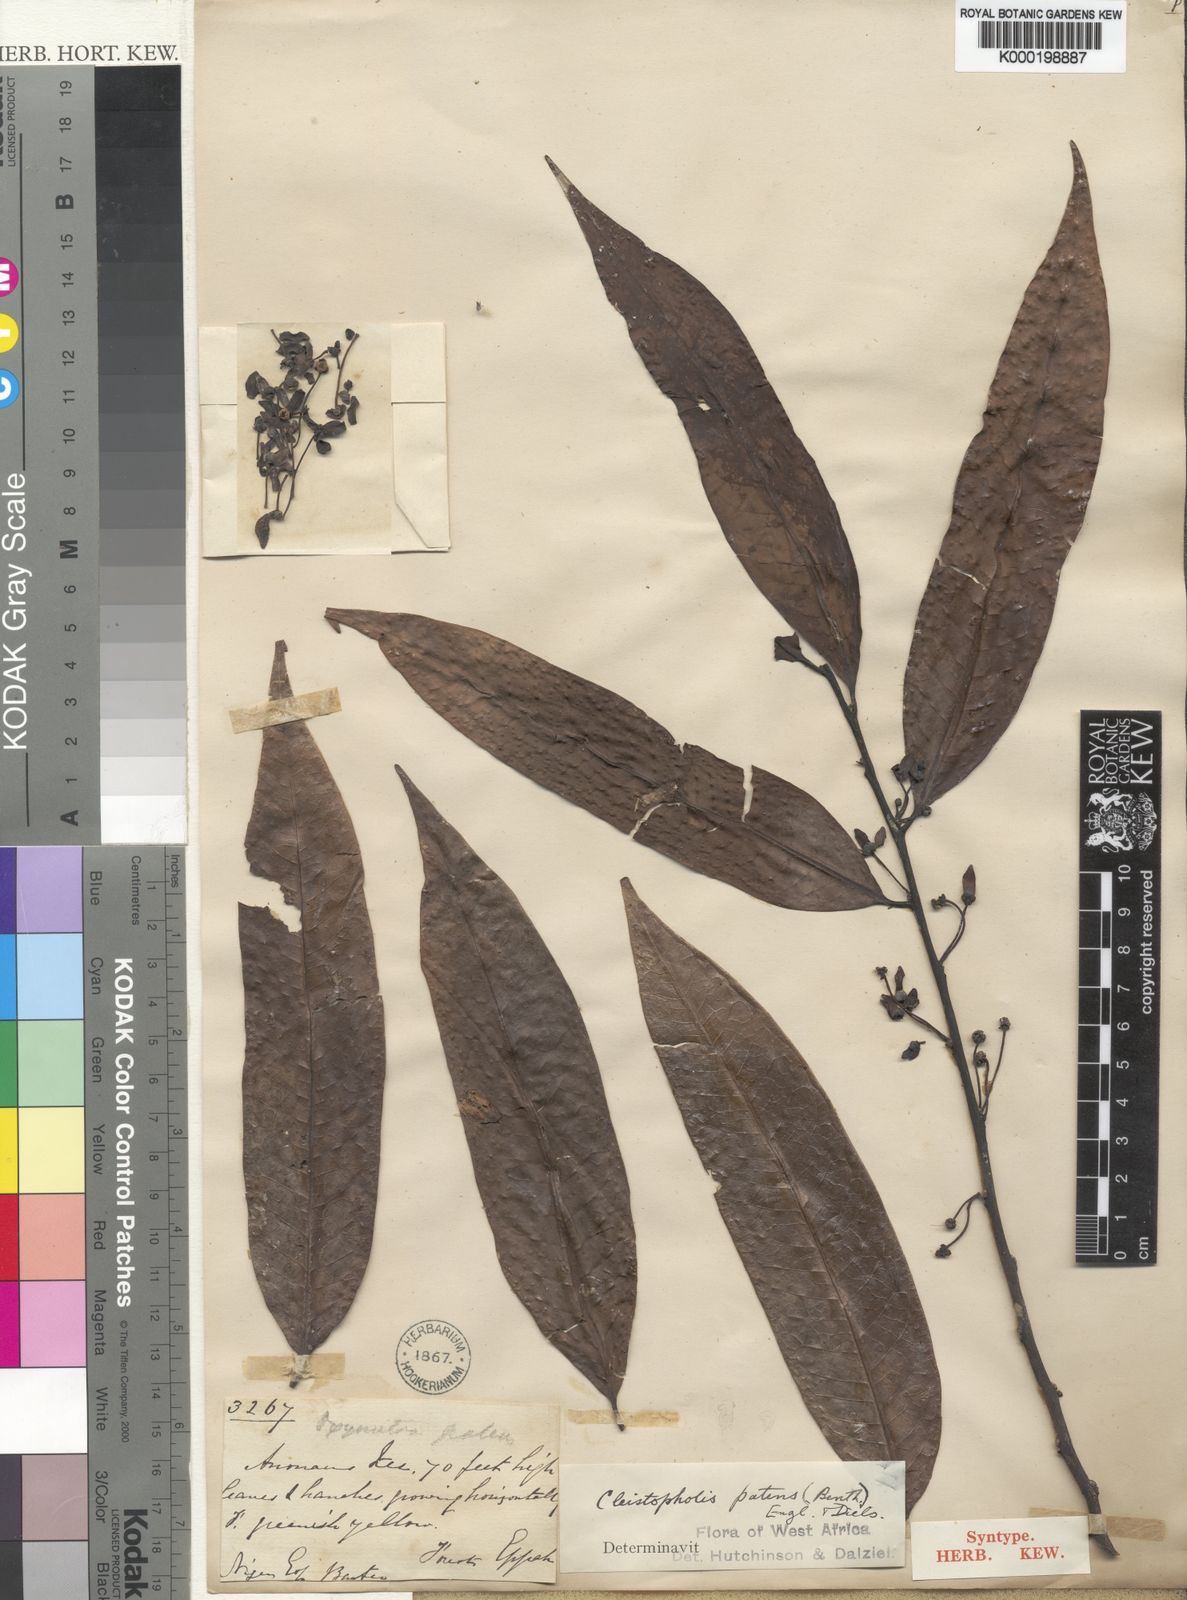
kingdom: Plantae
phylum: Tracheophyta
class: Magnoliopsida
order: Magnoliales
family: Annonaceae
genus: Cleistopholis
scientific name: Cleistopholis patens
